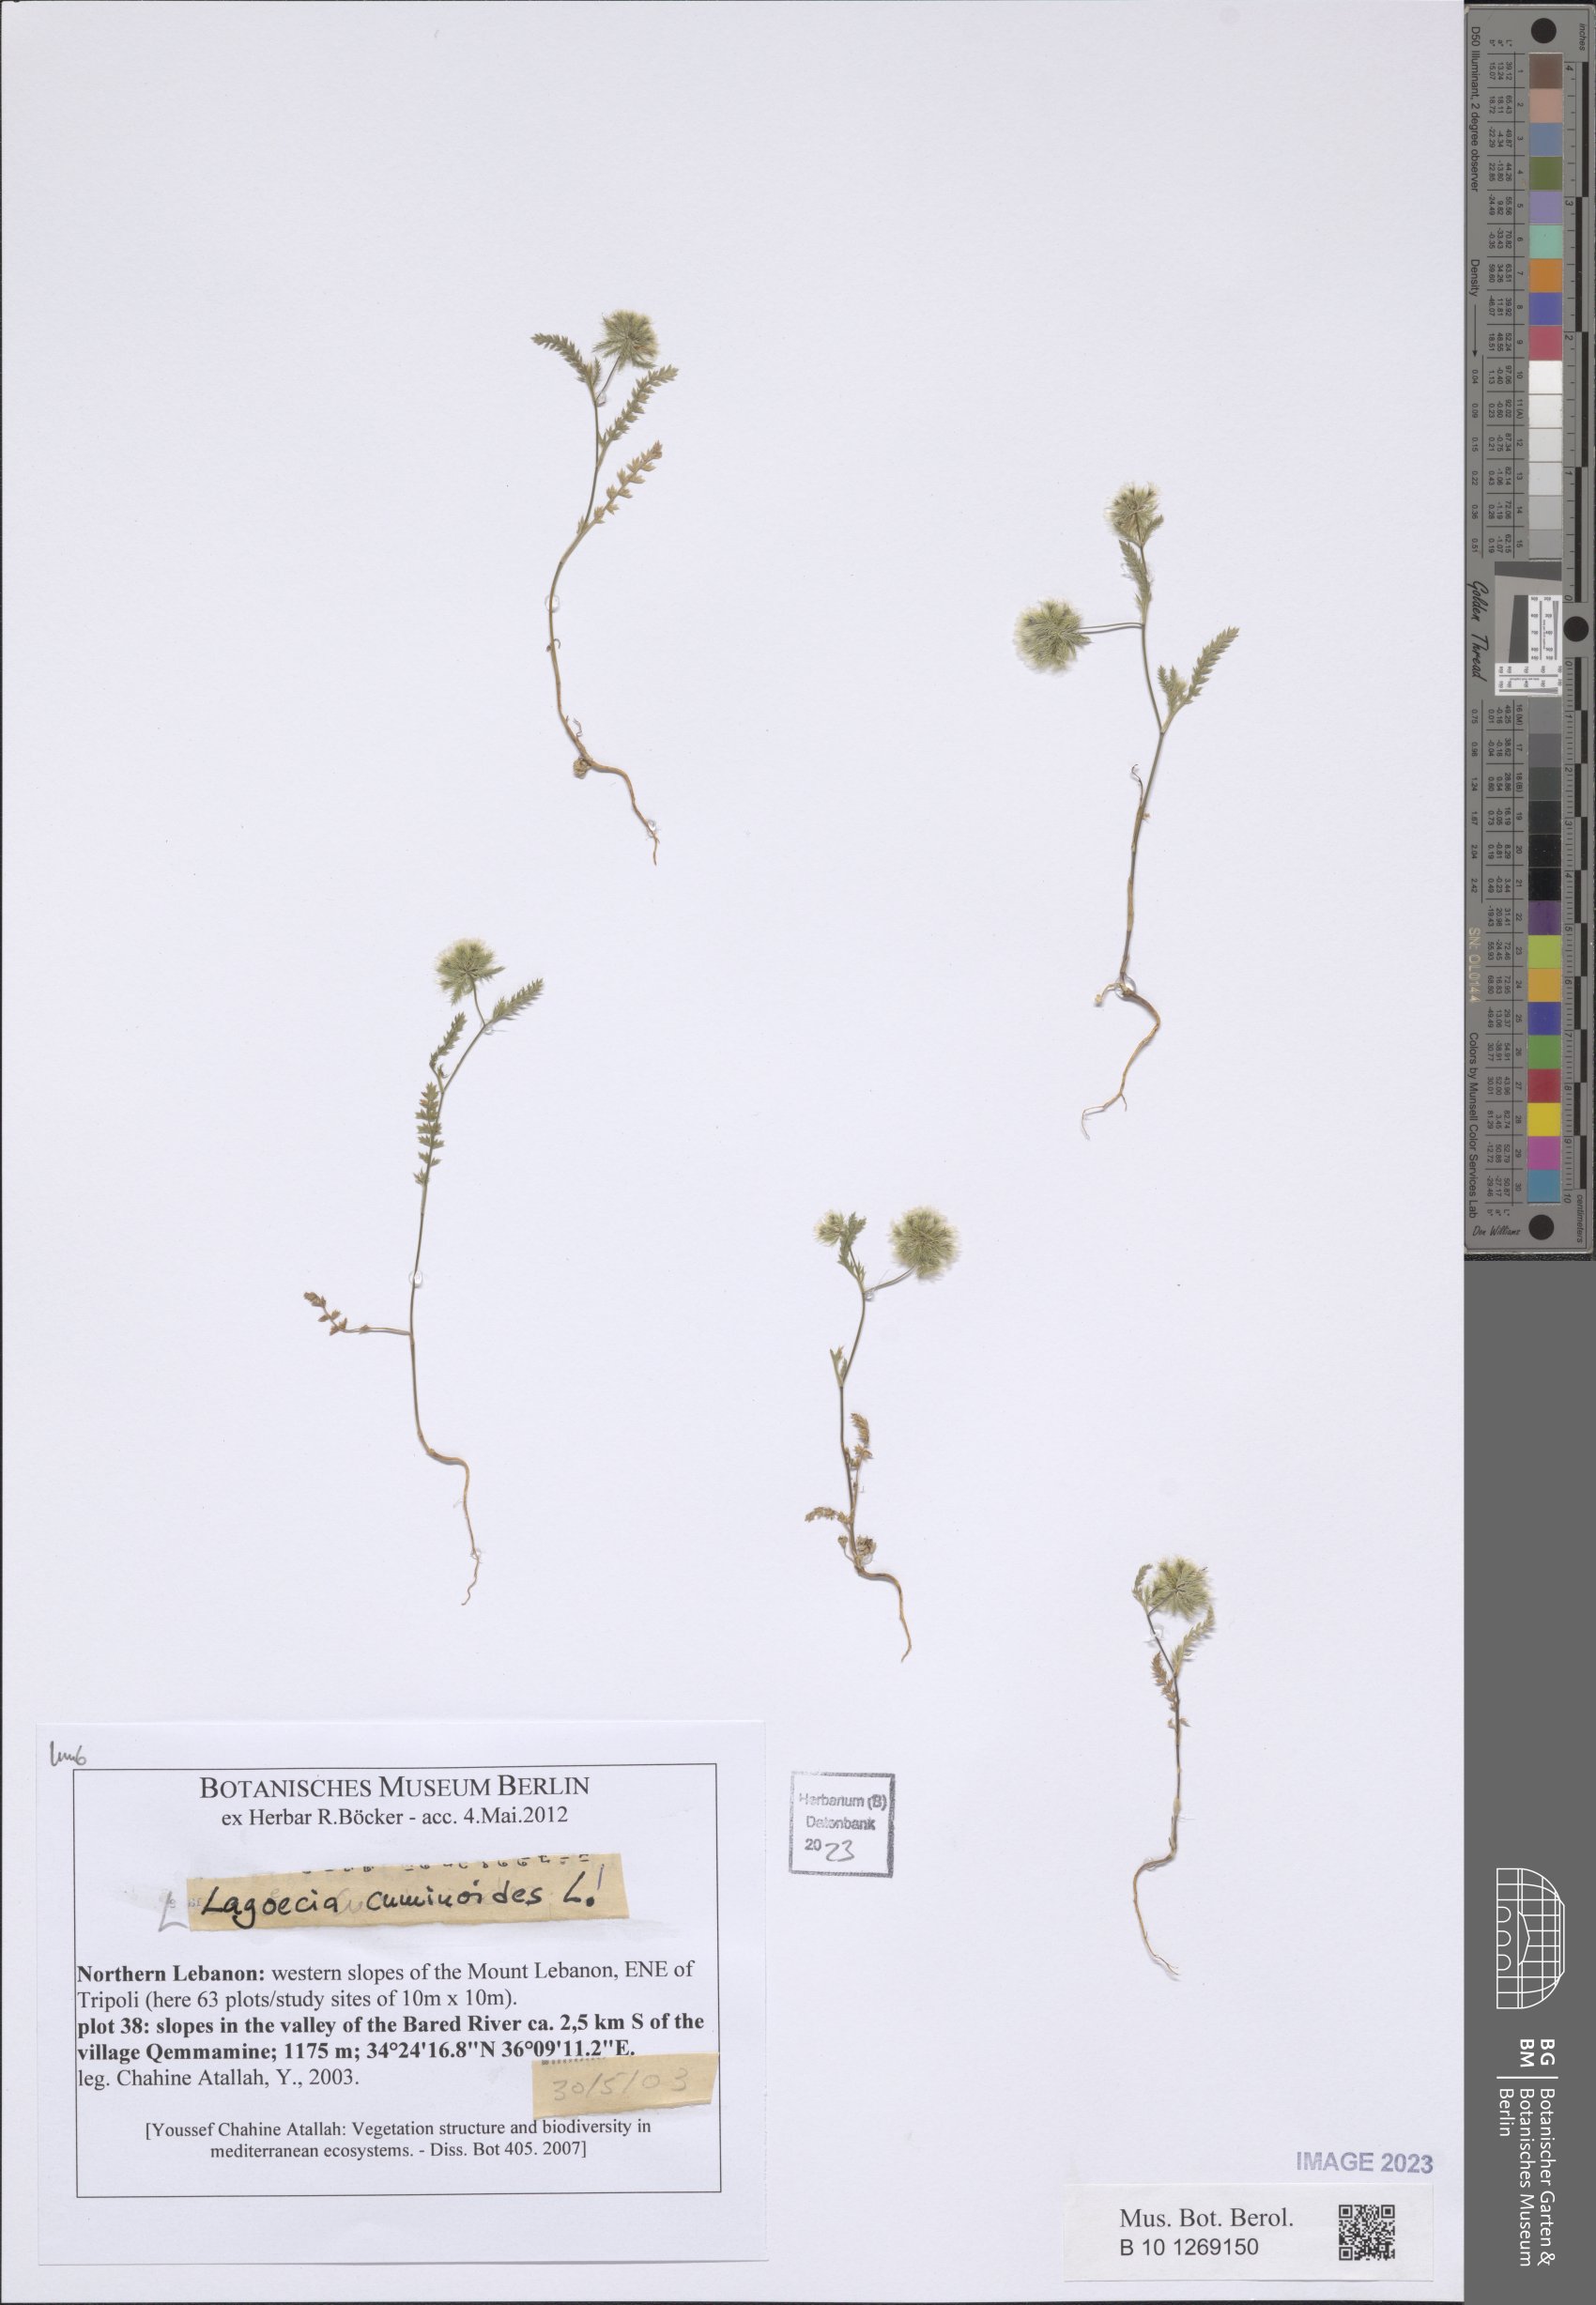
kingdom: Plantae
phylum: Tracheophyta
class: Magnoliopsida
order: Apiales
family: Apiaceae
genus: Lagoecia
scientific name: Lagoecia cuminoides
